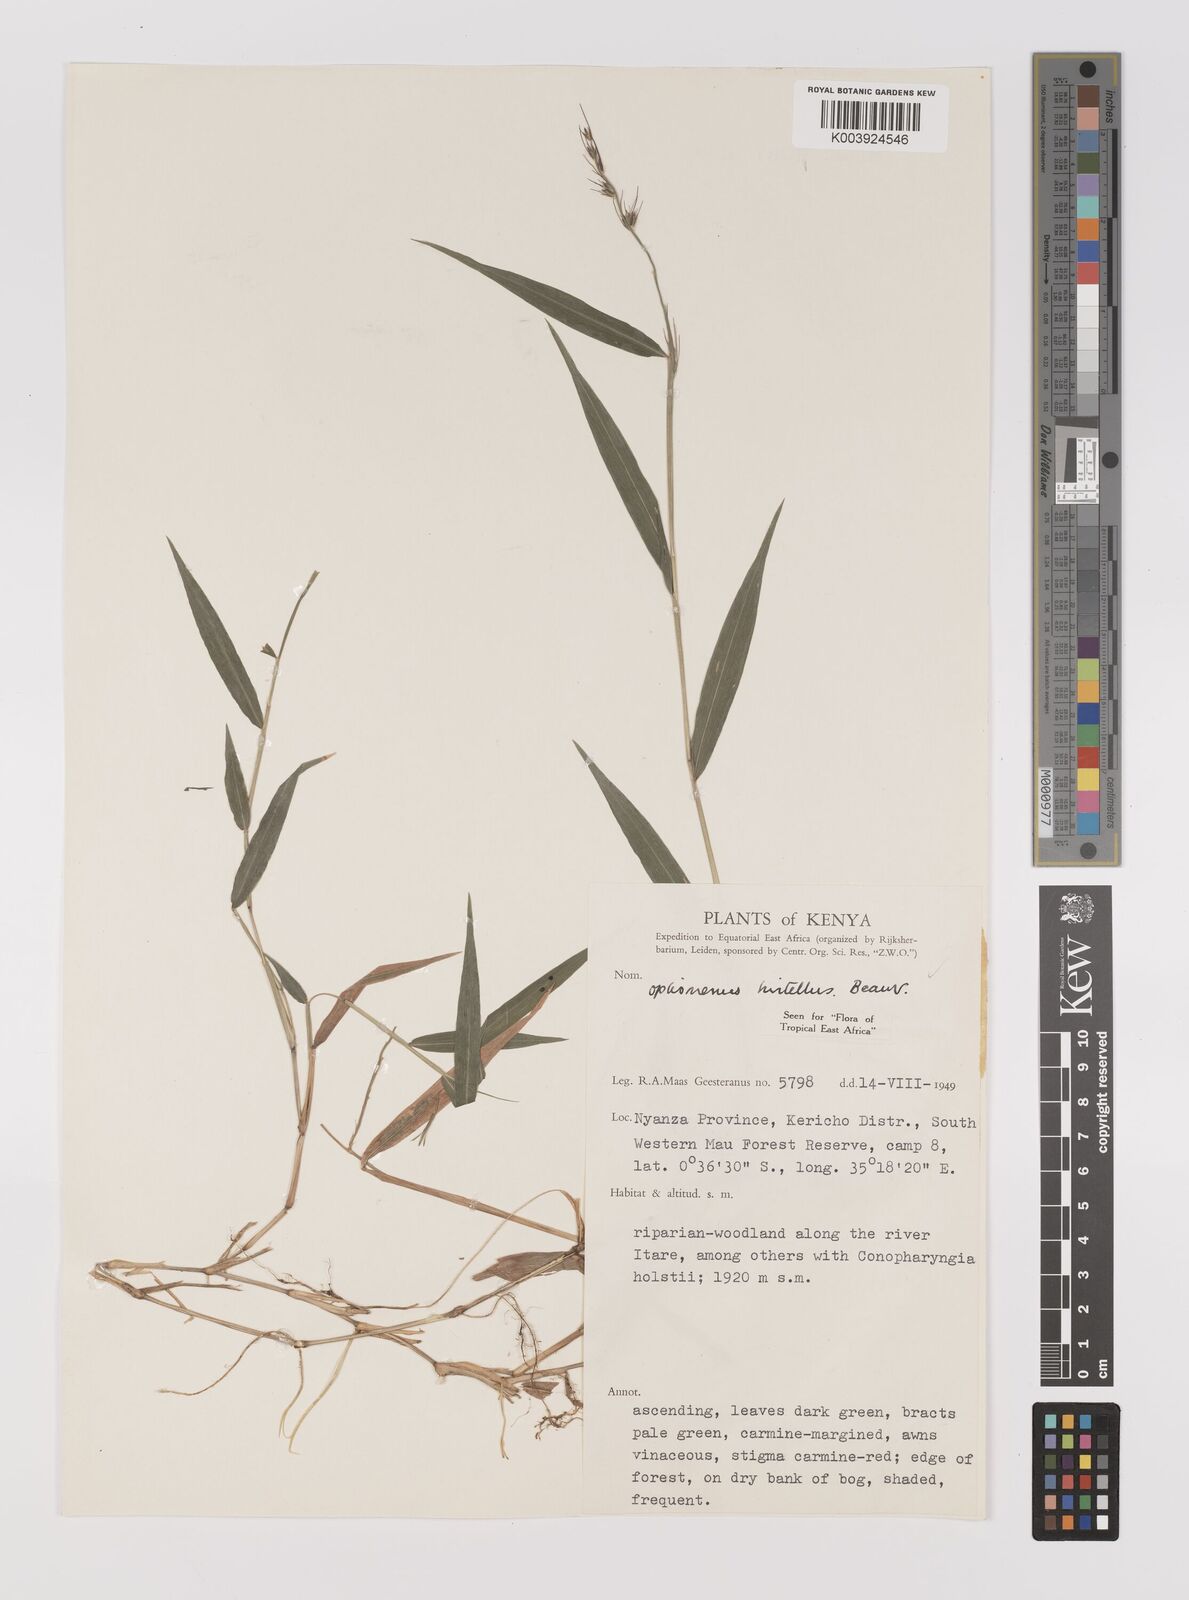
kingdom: Plantae
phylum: Tracheophyta
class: Liliopsida
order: Poales
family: Poaceae
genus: Oplismenus
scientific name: Oplismenus hirtellus
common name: Basketgrass
